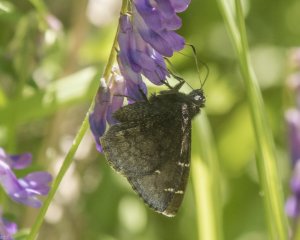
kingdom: Animalia
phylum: Arthropoda
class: Insecta
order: Lepidoptera
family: Hesperiidae
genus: Autochton
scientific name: Autochton
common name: Northern Cloudywing
